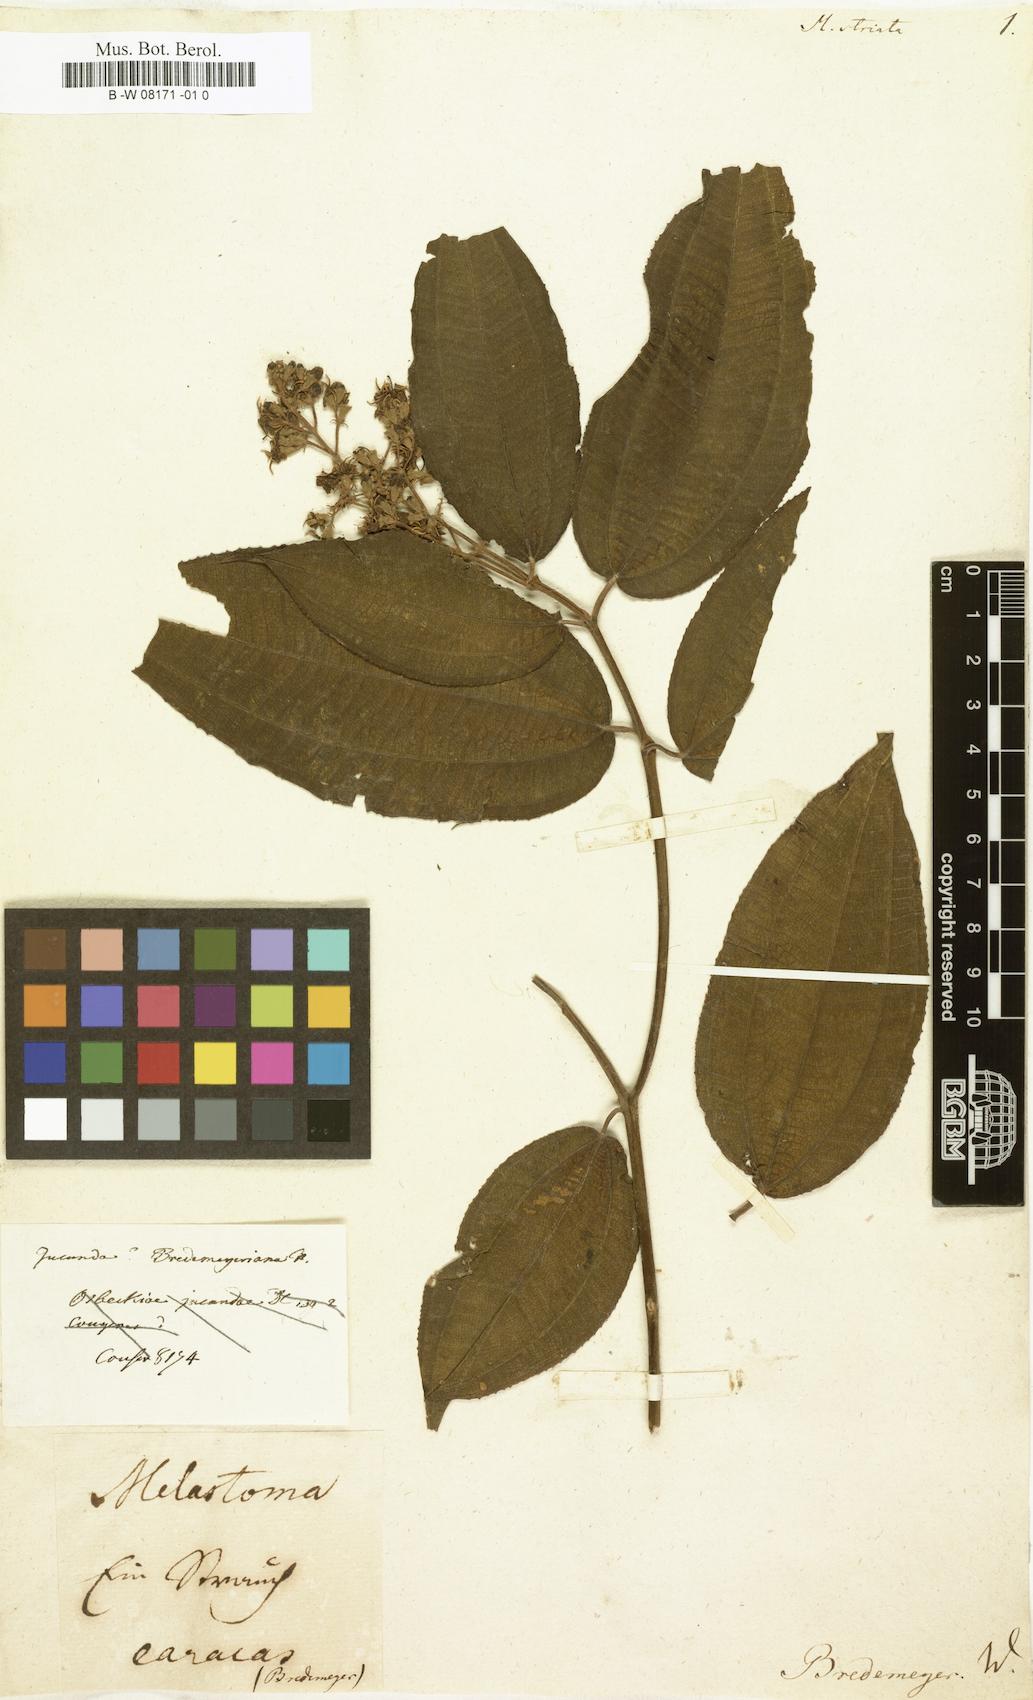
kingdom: Plantae
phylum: Tracheophyta
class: Magnoliopsida
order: Myrtales
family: Melastomataceae
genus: Miconia
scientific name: Miconia
